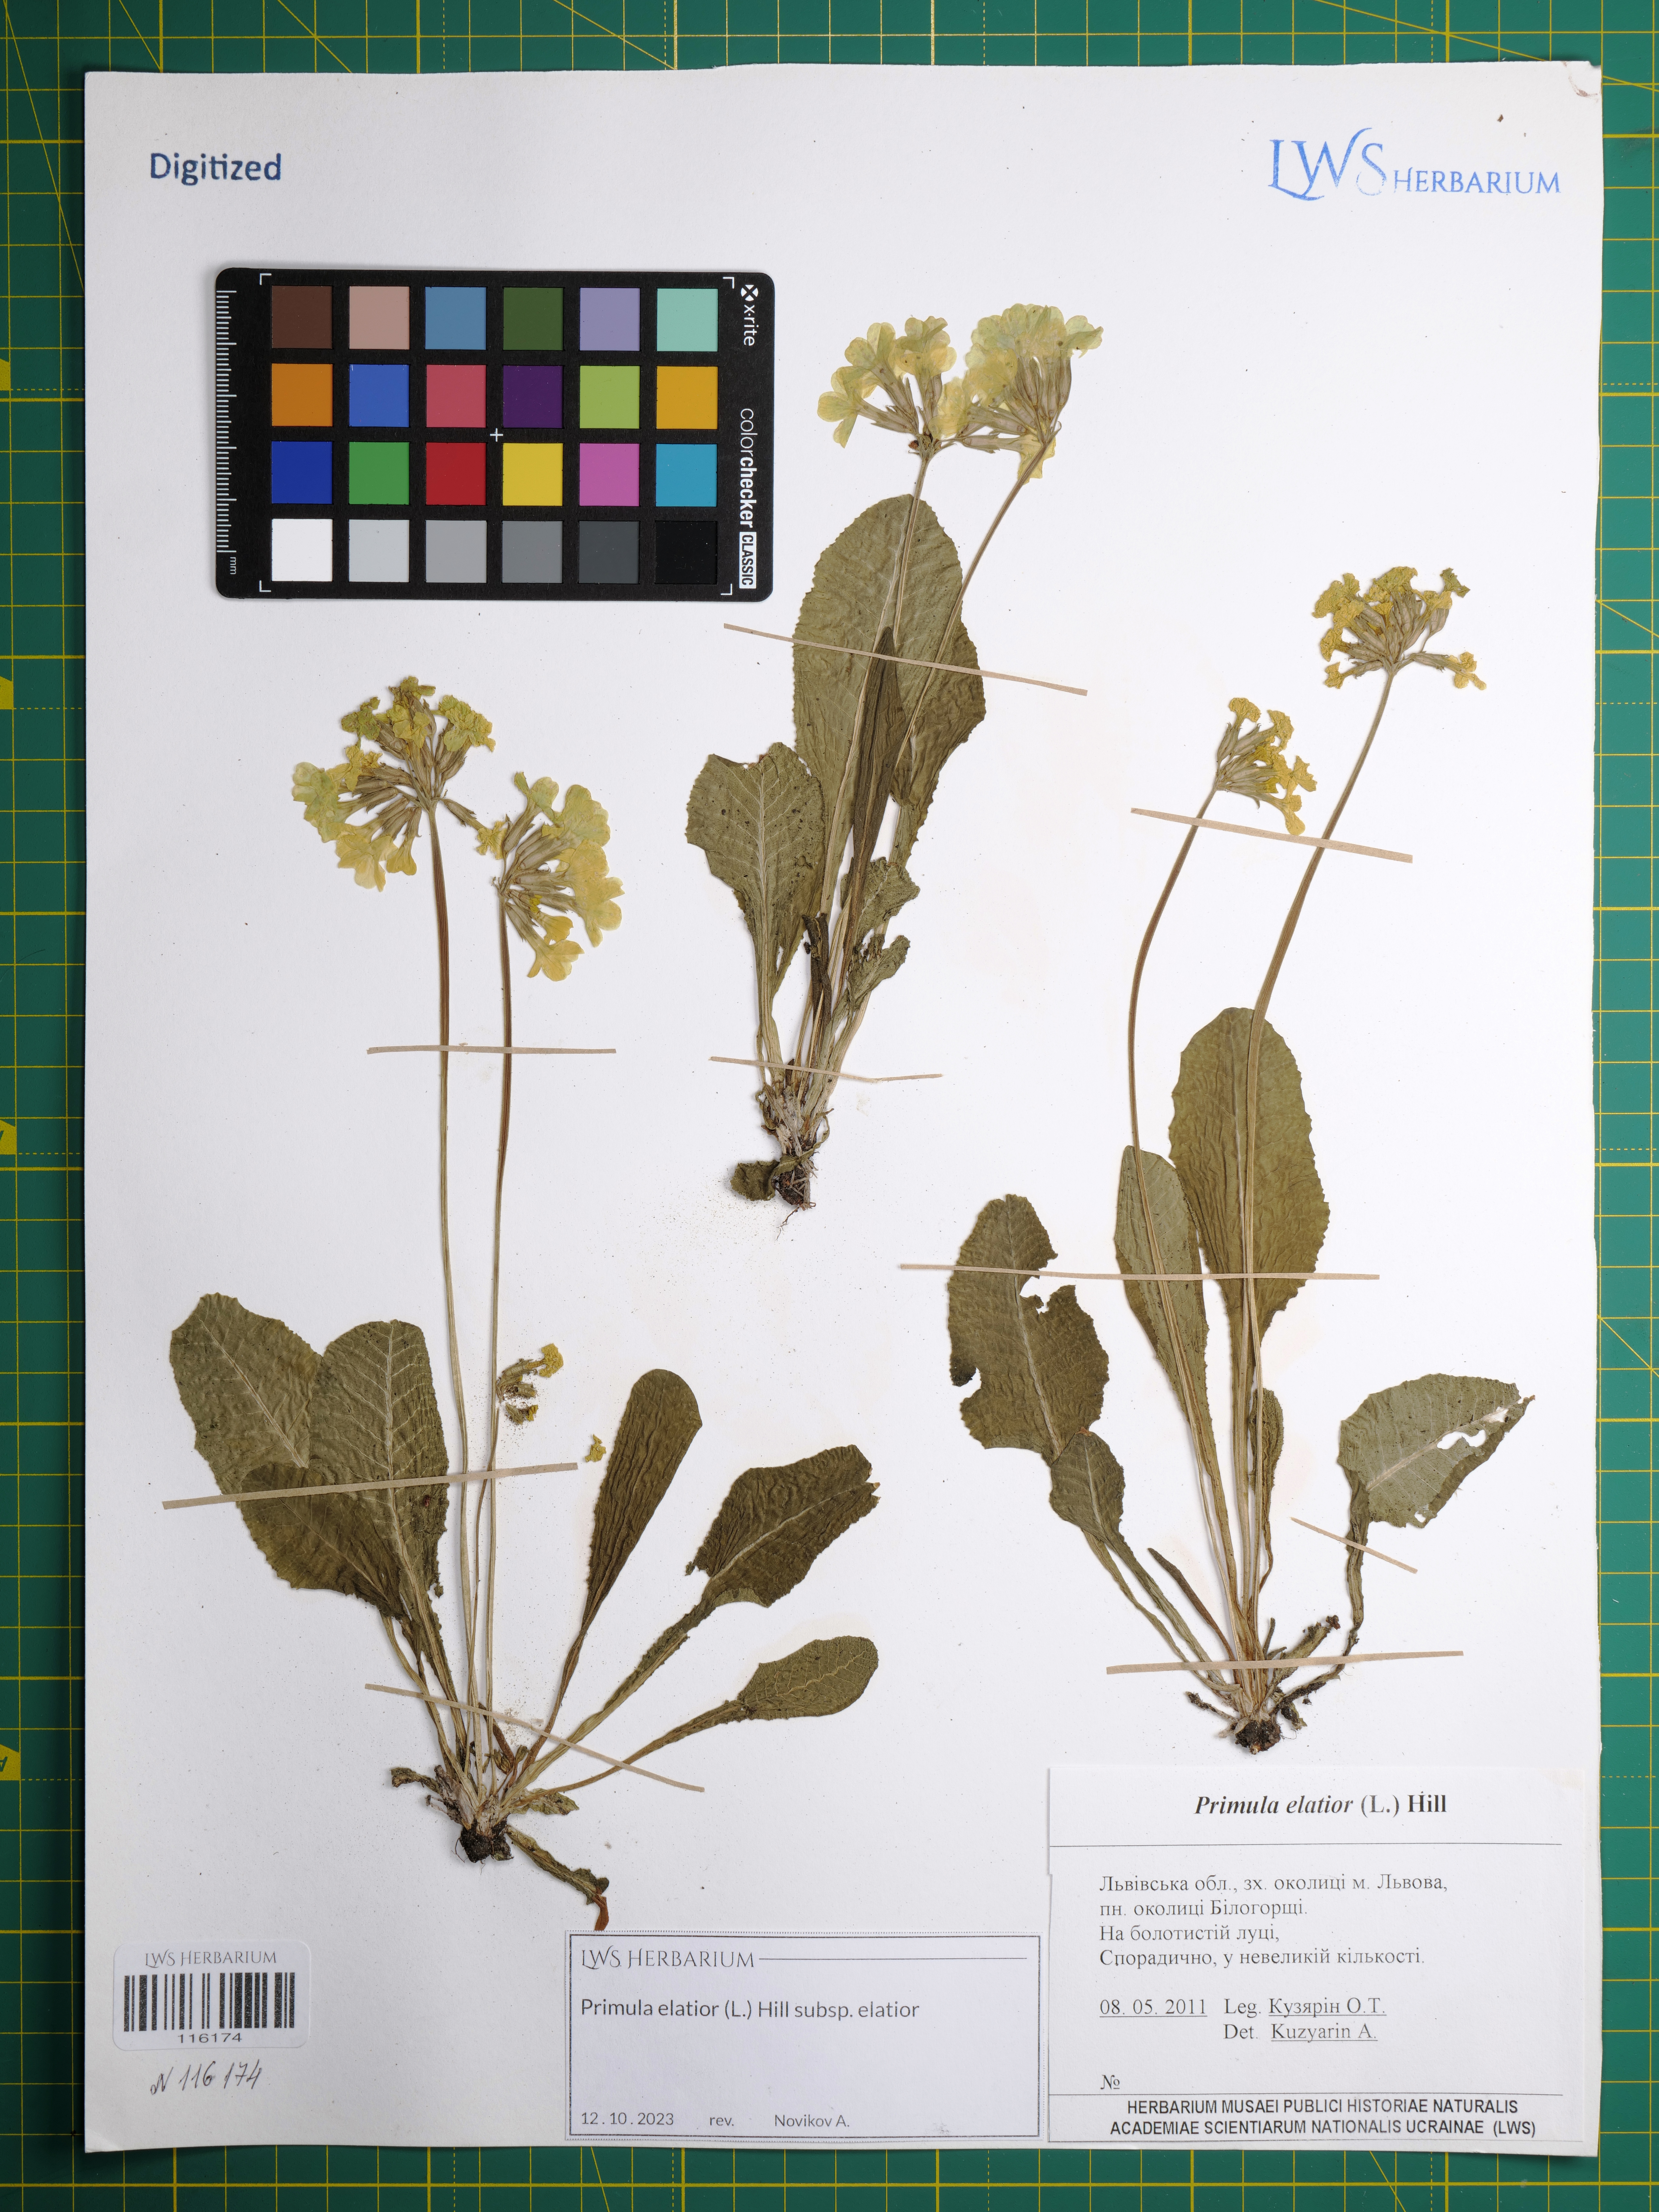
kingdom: Plantae
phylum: Tracheophyta
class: Magnoliopsida
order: Ericales
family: Primulaceae
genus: Primula
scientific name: Primula elatior
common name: Oxlip
